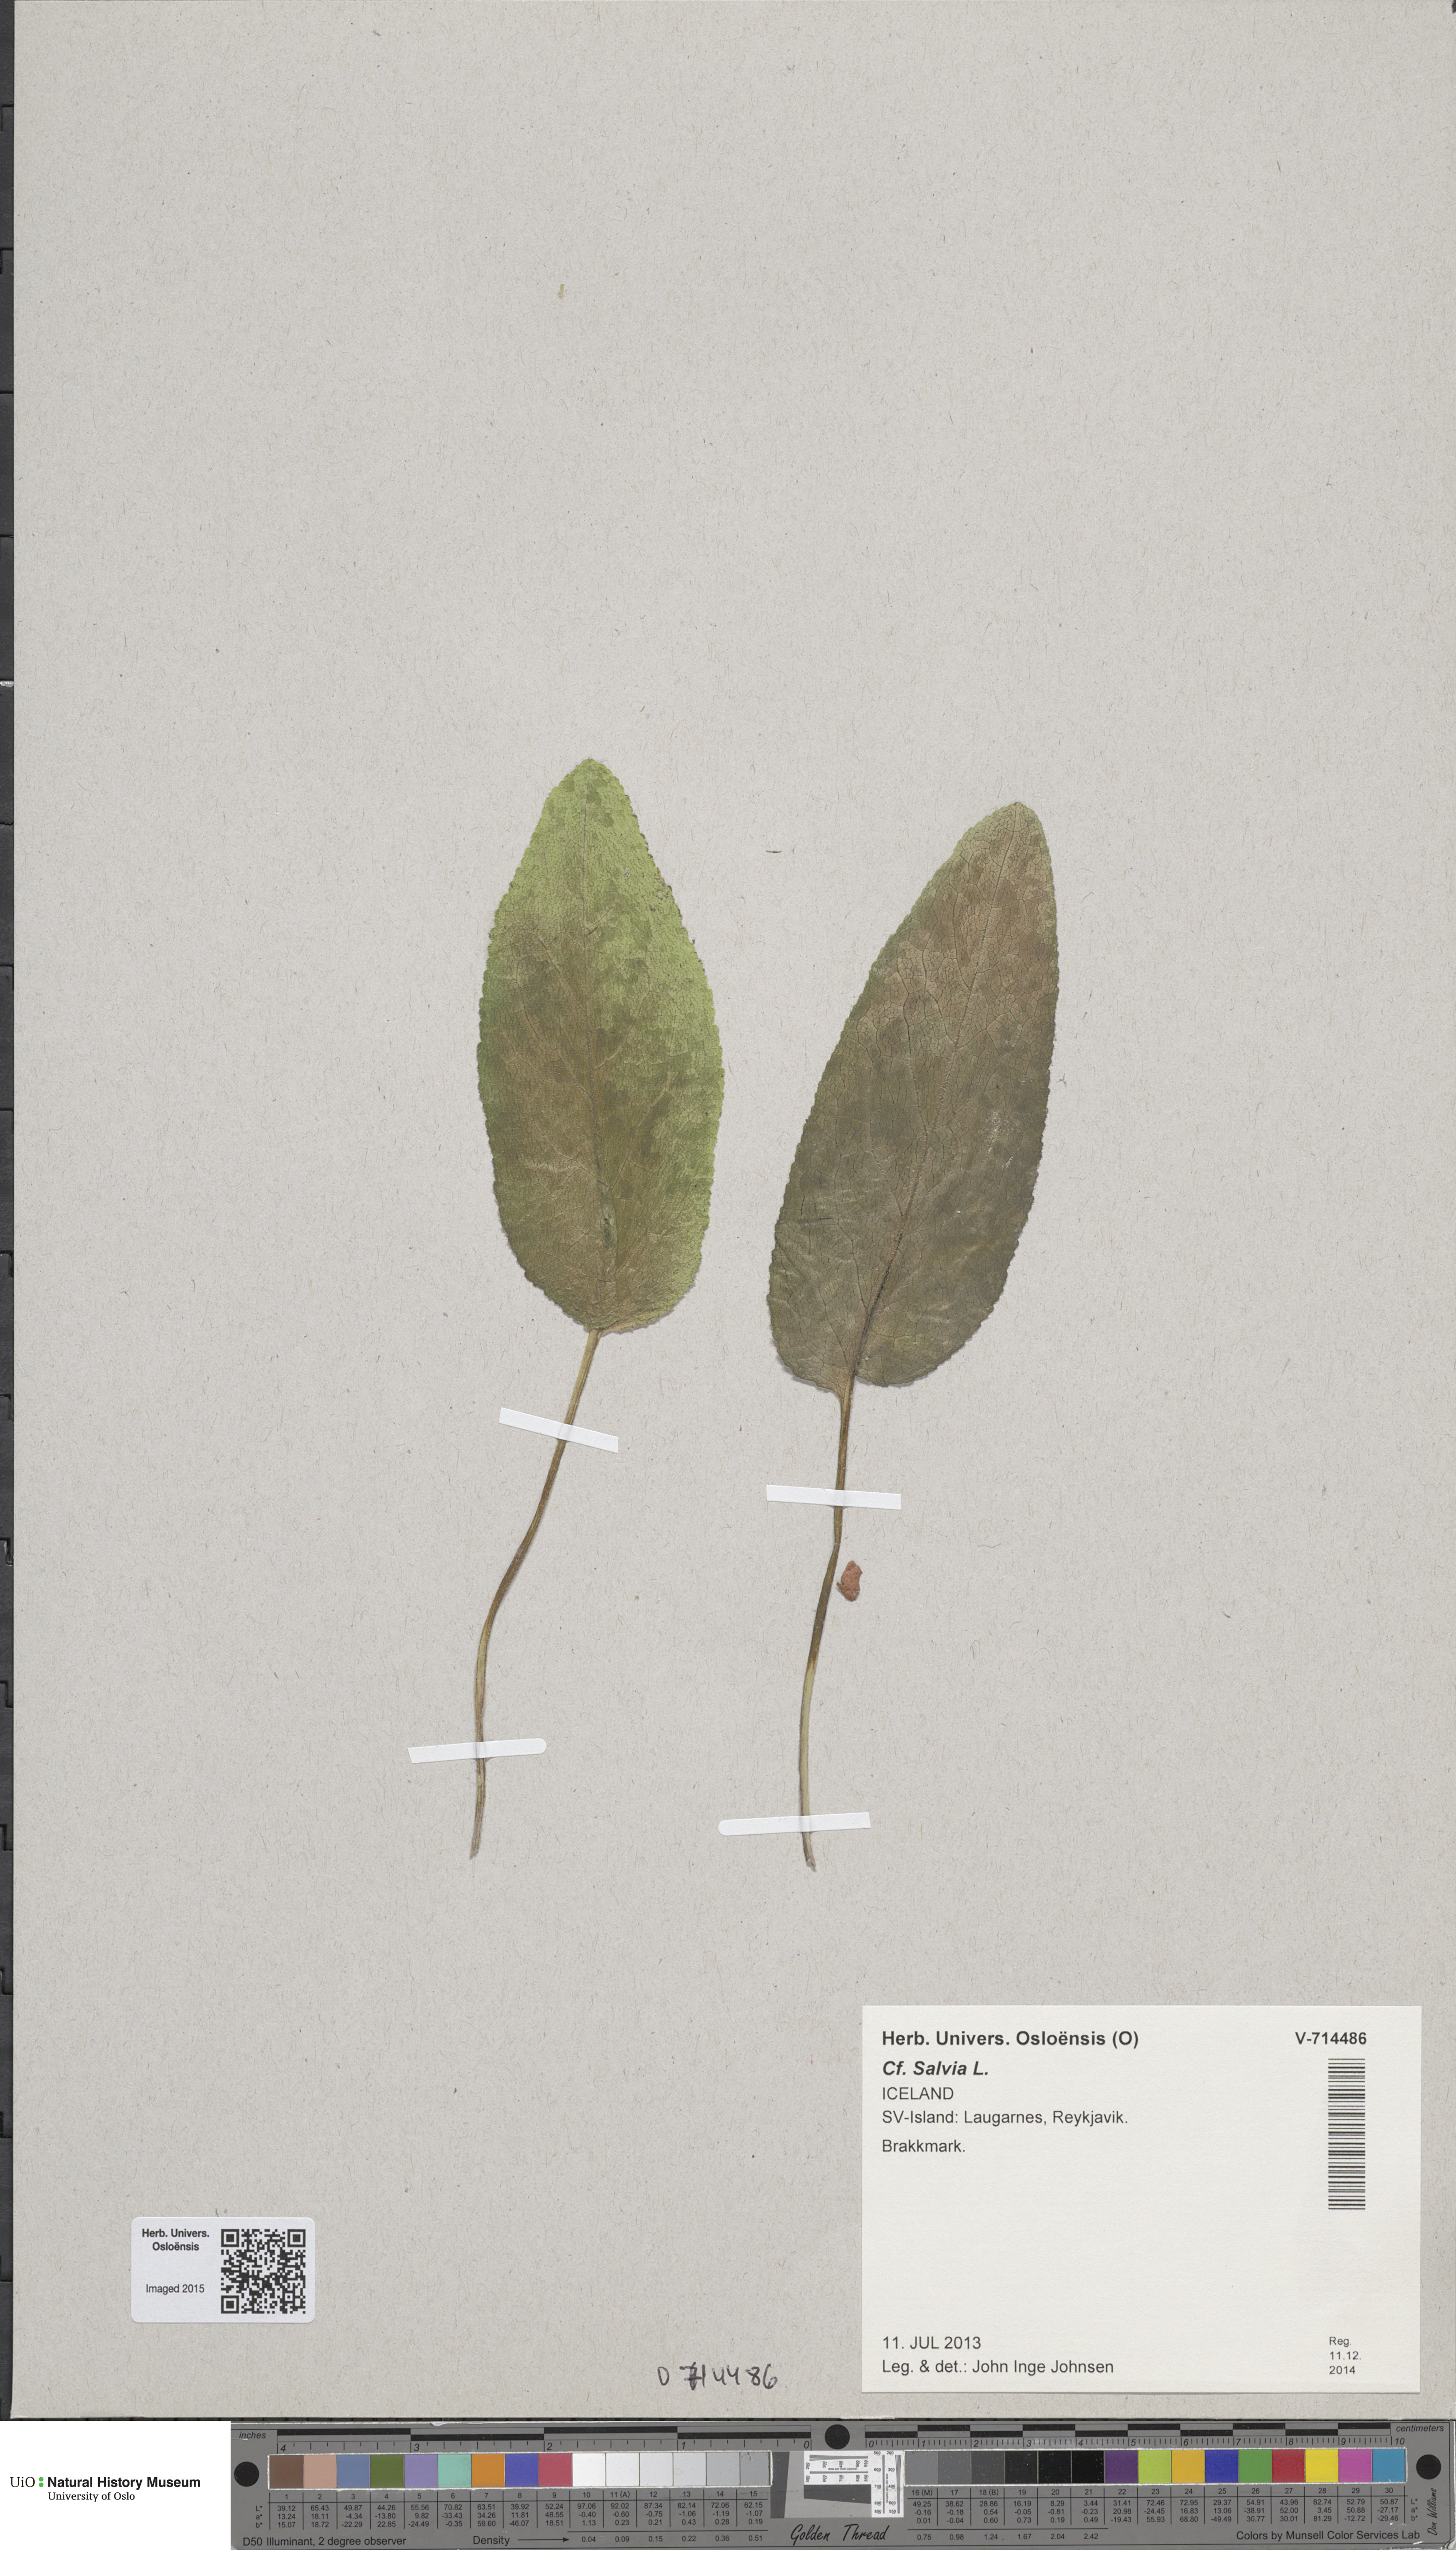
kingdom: Plantae
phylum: Tracheophyta
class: Magnoliopsida
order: Lamiales
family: Lamiaceae
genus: Salvia
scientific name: Salvia
